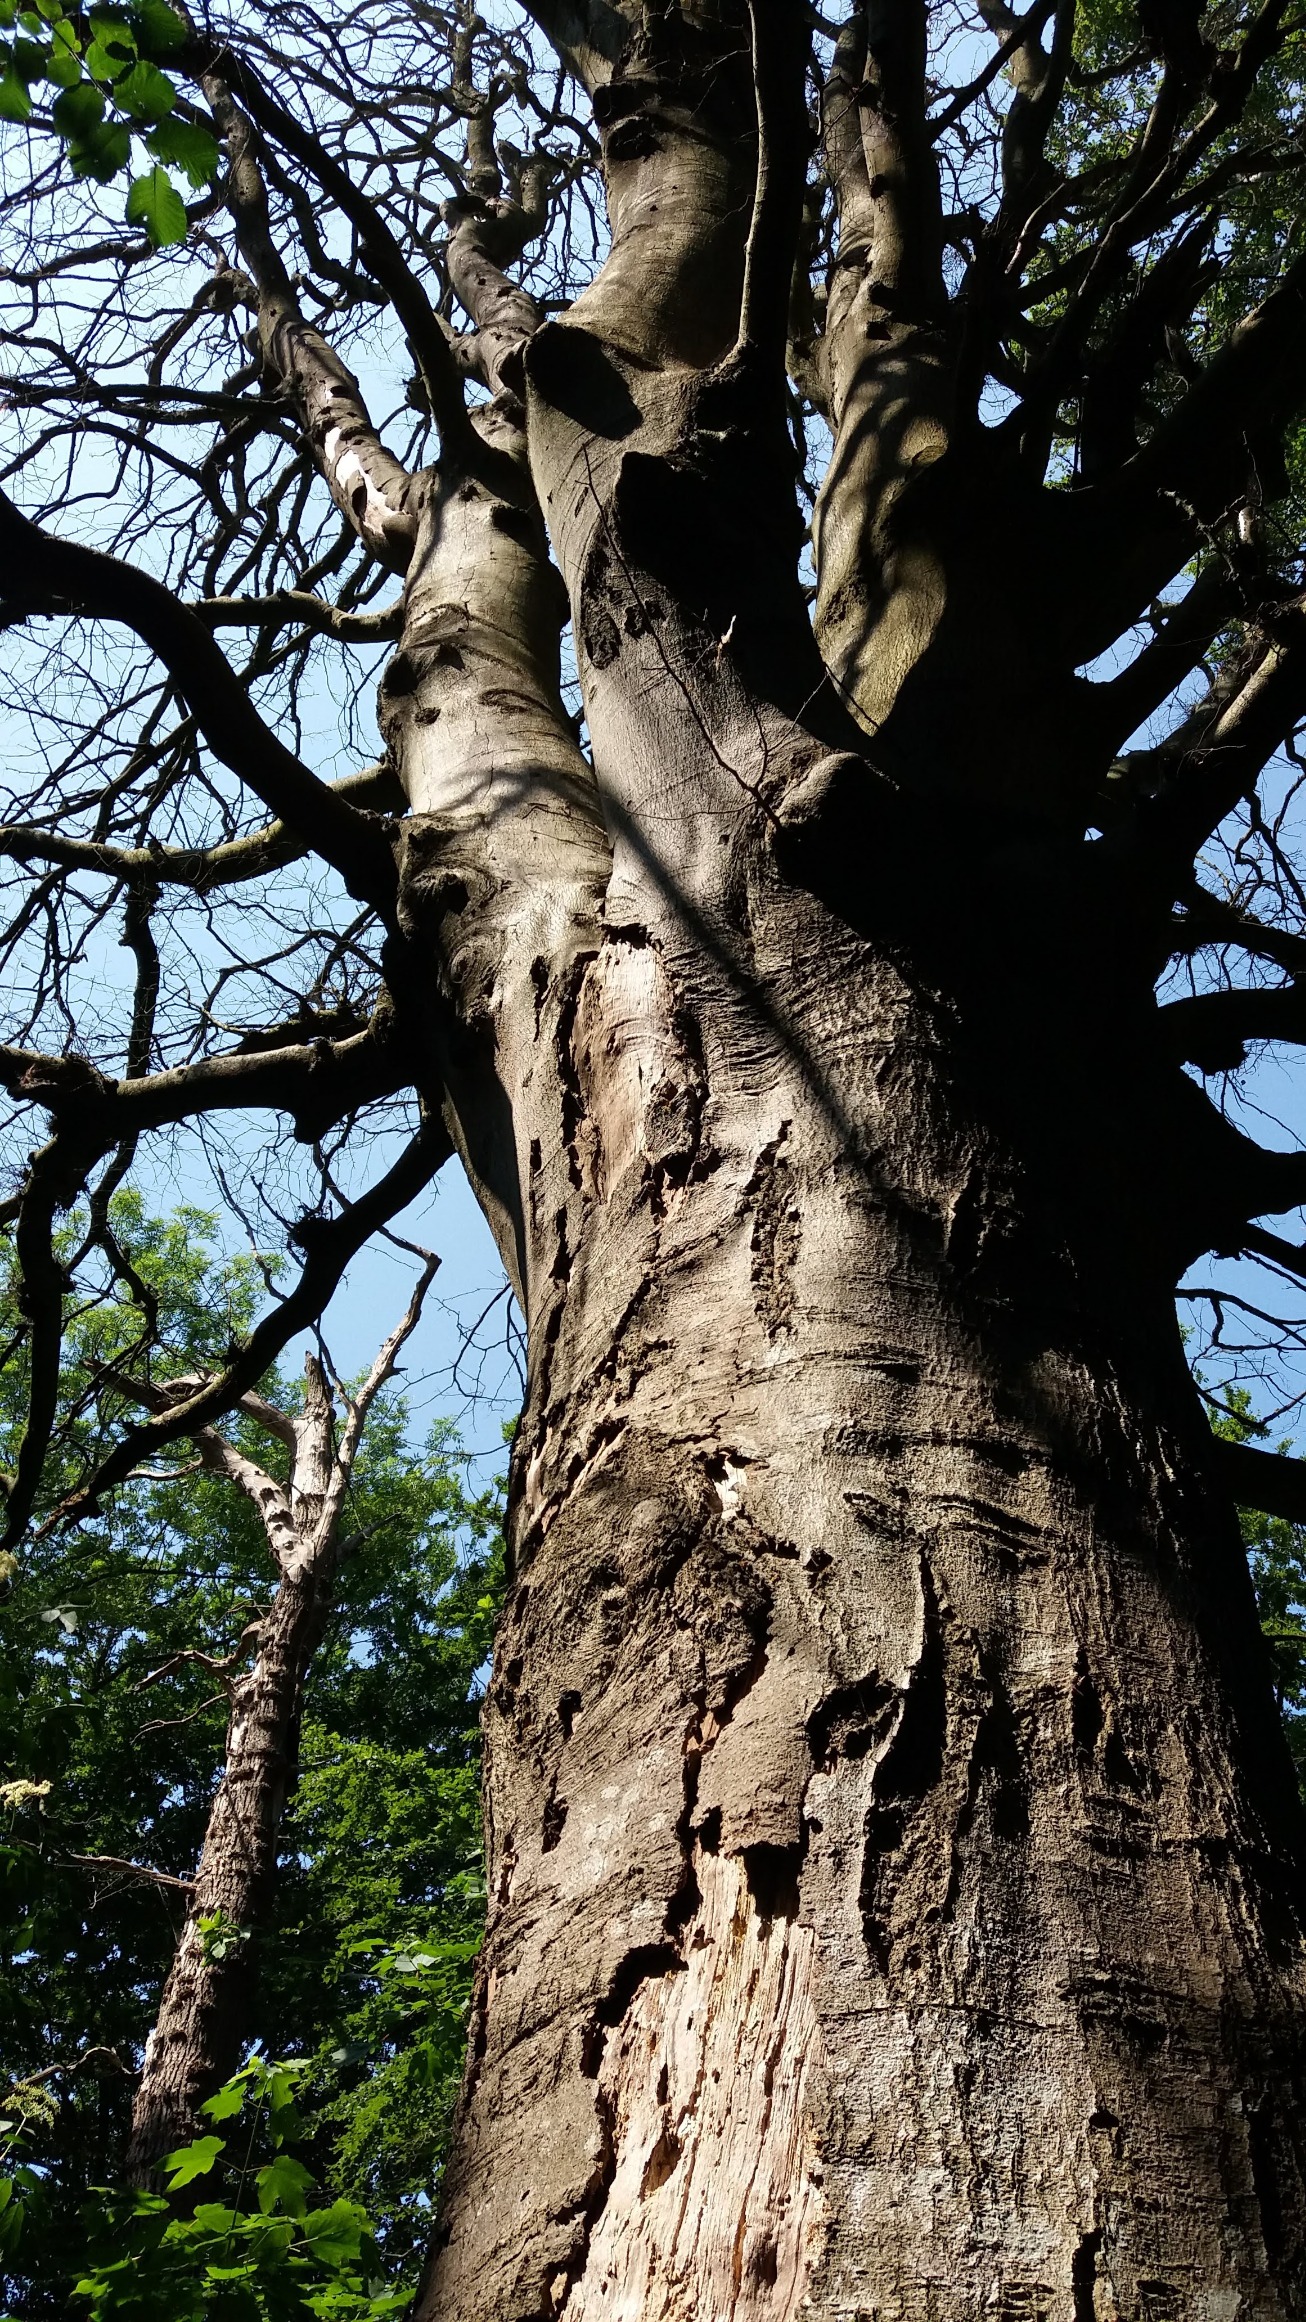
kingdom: Plantae
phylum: Tracheophyta
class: Magnoliopsida
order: Fagales
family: Fagaceae
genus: Fagus
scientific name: Fagus sylvatica
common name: Bøg
